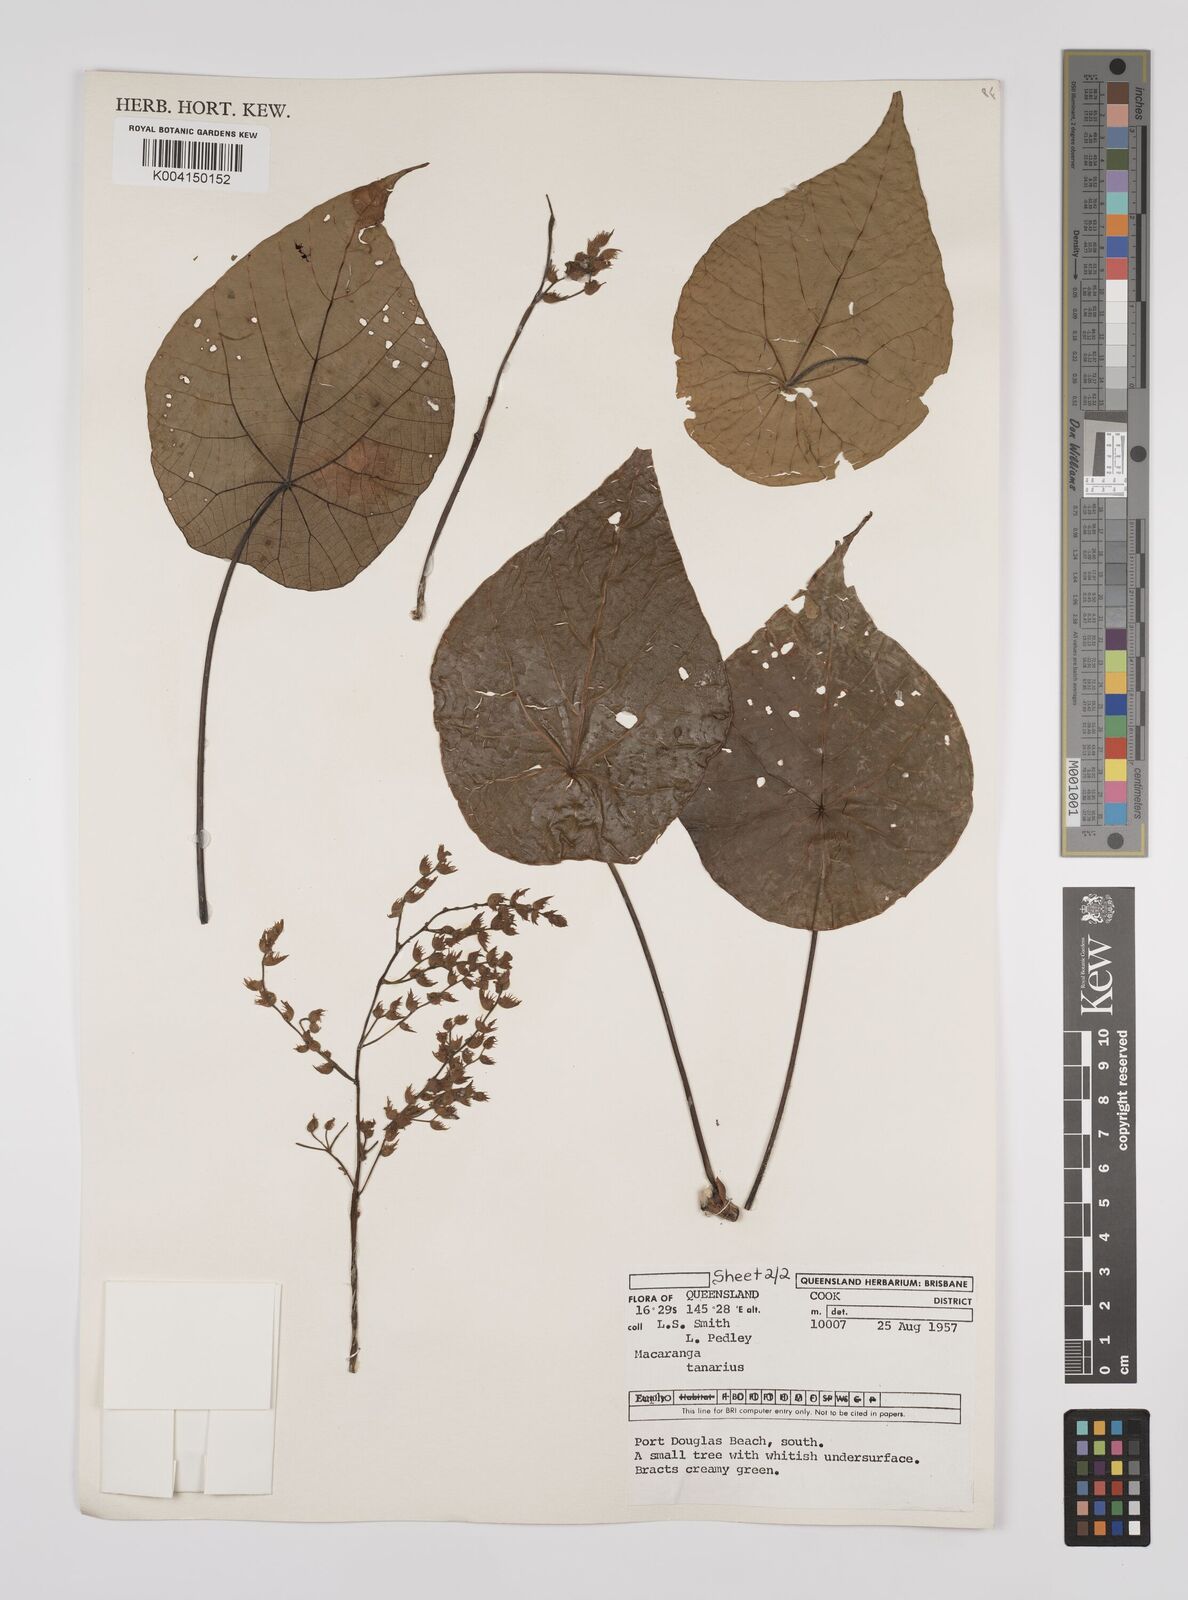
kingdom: Plantae
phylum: Tracheophyta
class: Magnoliopsida
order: Malpighiales
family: Euphorbiaceae
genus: Macaranga
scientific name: Macaranga tanarius
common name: Parasol leaf tree
